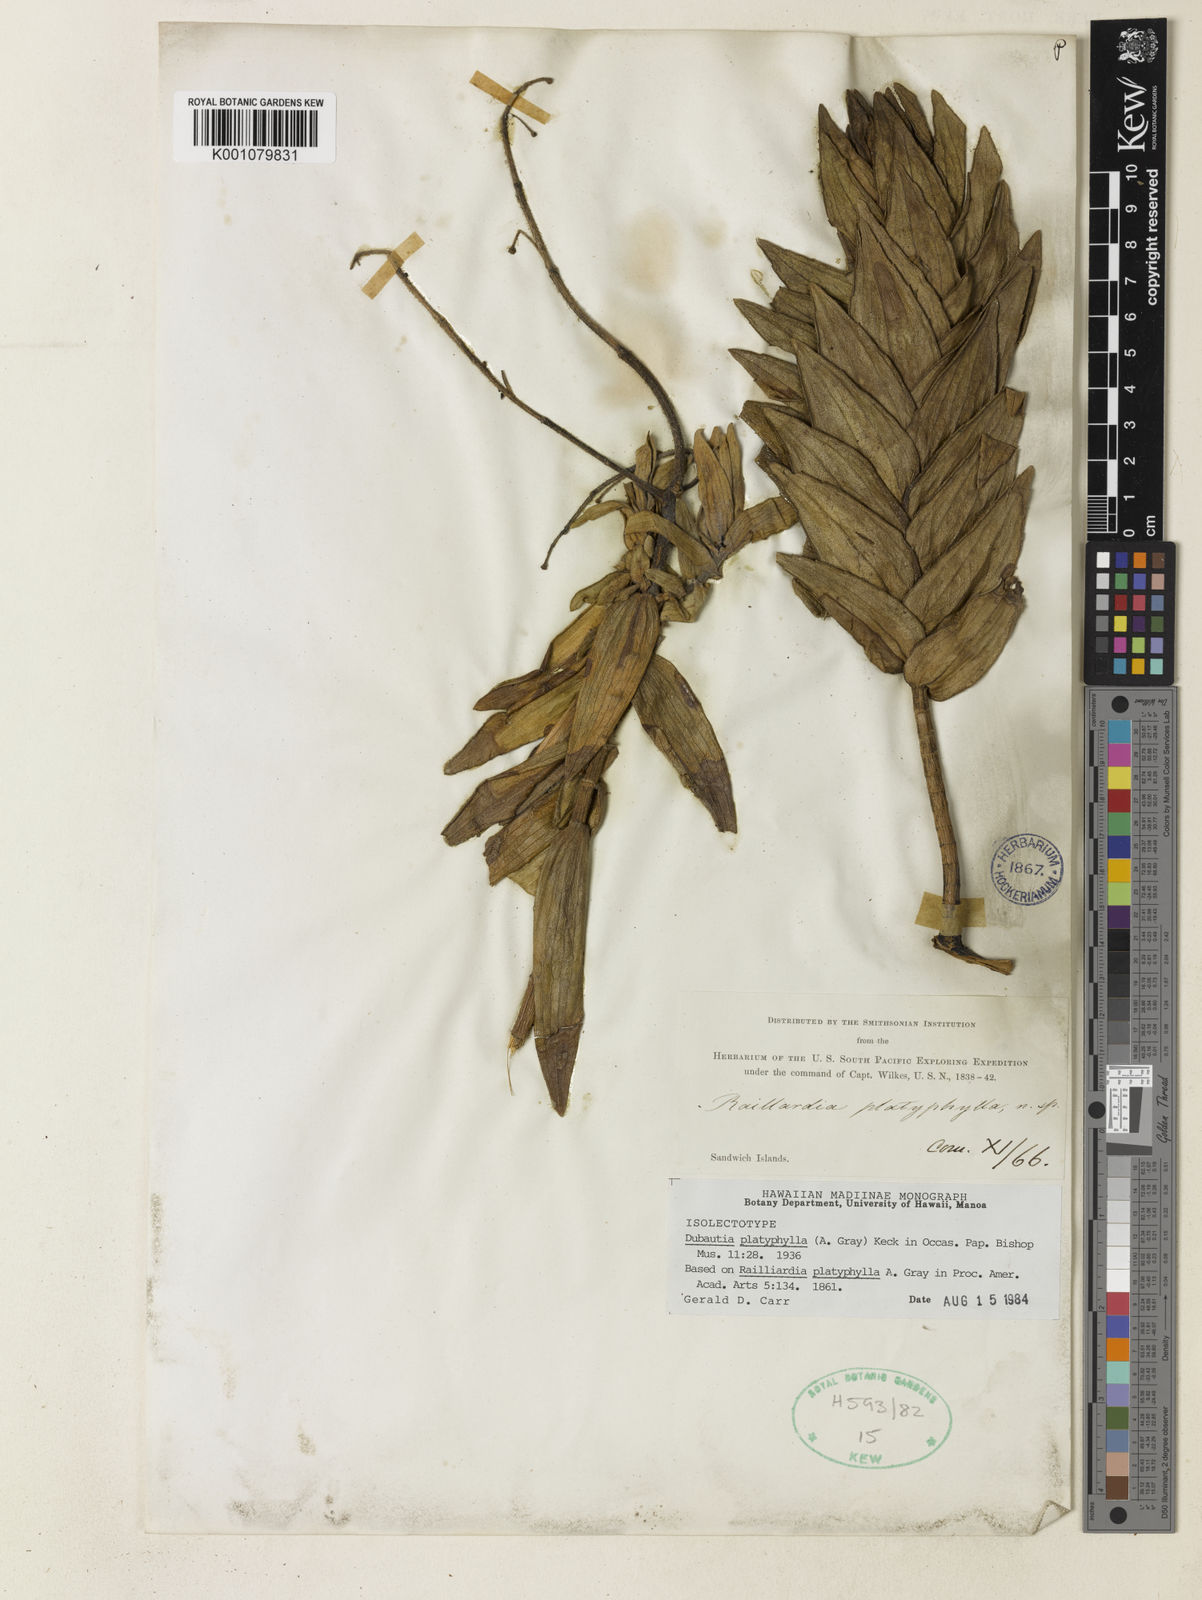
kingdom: Plantae
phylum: Tracheophyta
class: Magnoliopsida
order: Asterales
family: Asteraceae
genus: Dubautia
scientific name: Dubautia platyphylla
